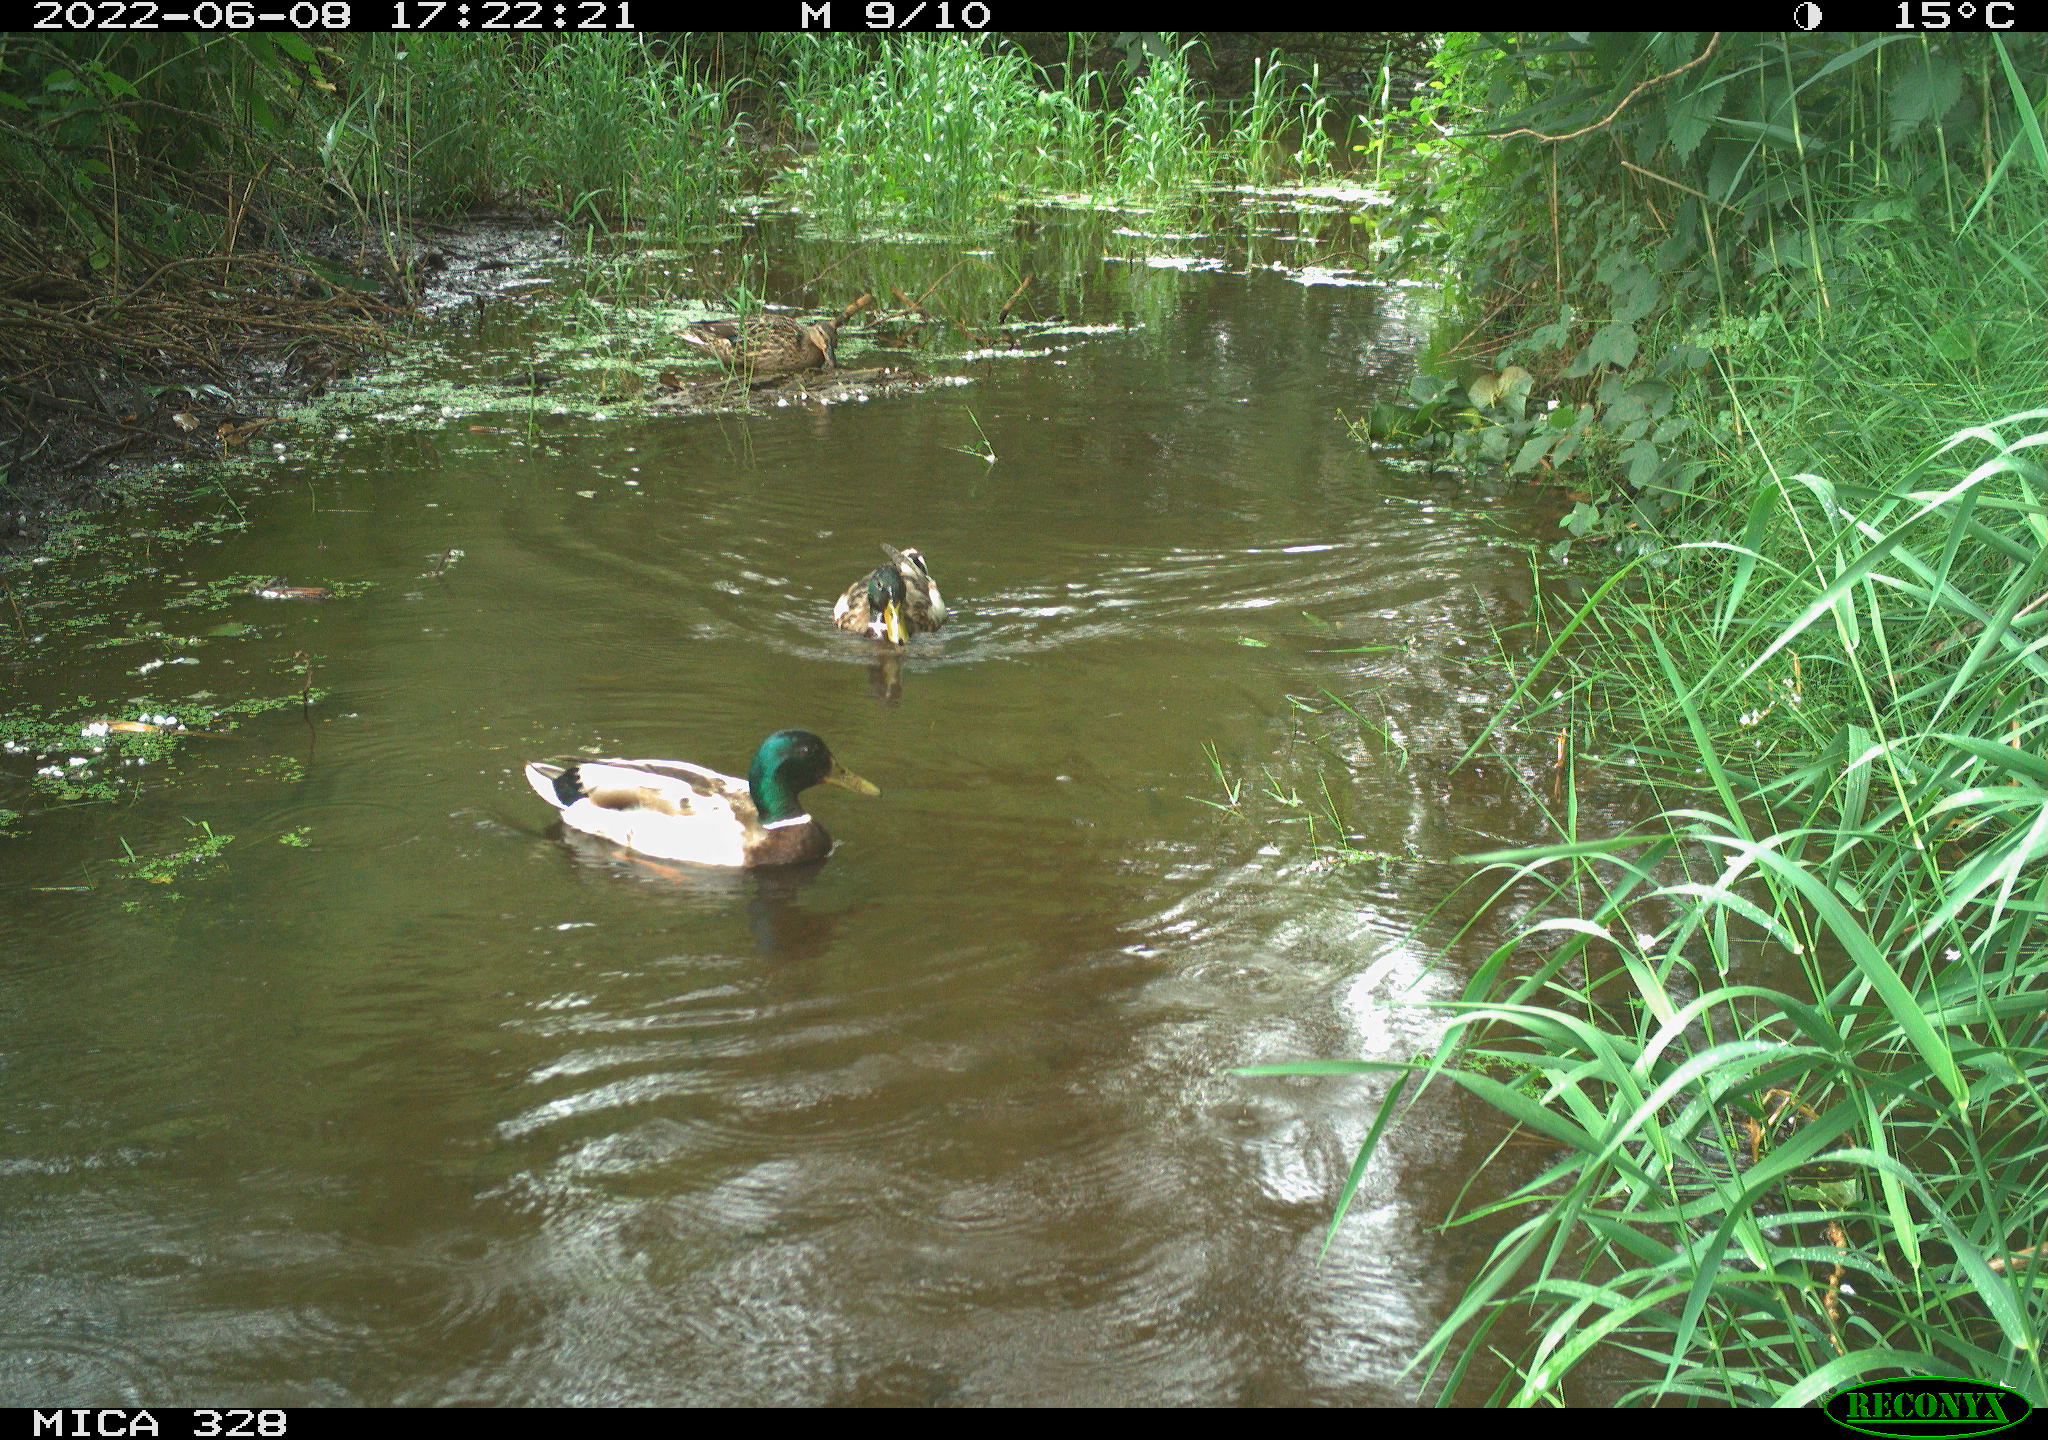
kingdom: Animalia
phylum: Chordata
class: Aves
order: Anseriformes
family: Anatidae
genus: Anas
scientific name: Anas
